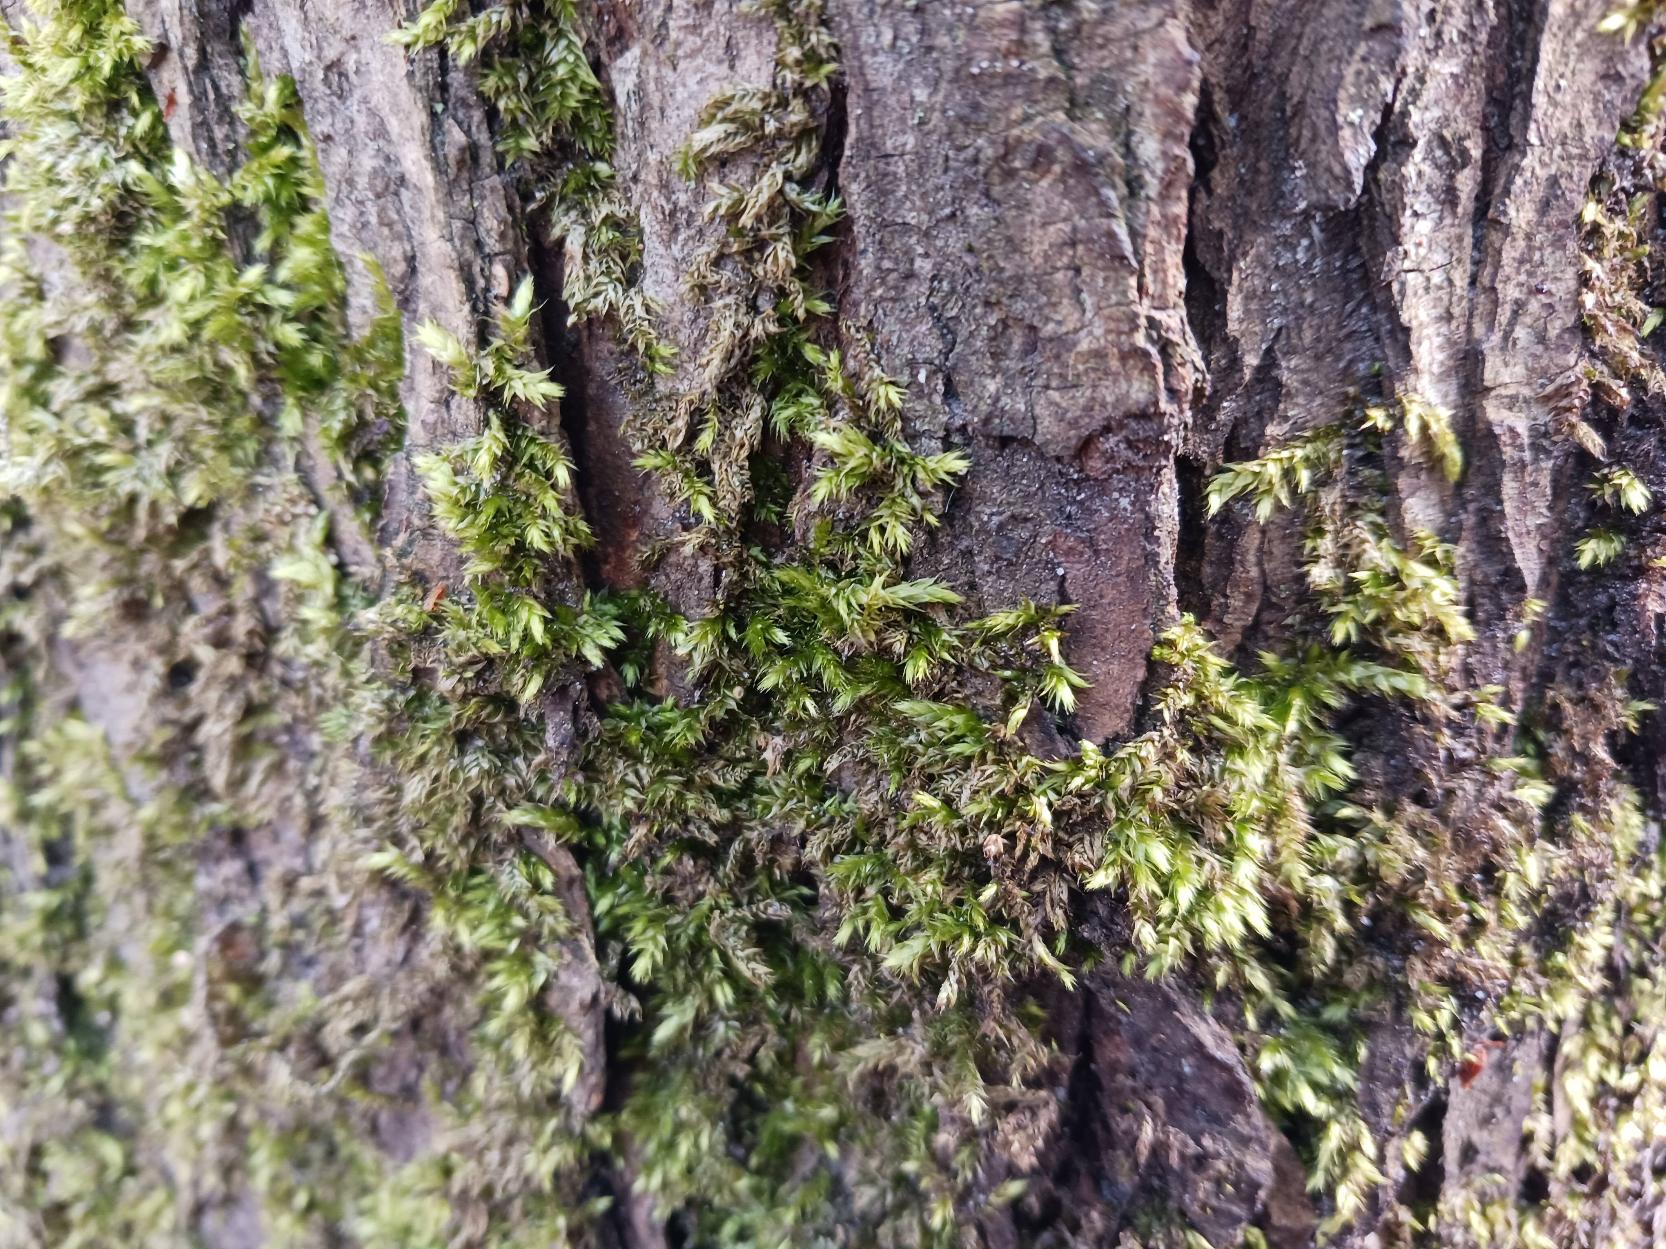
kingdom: Plantae
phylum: Bryophyta
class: Bryopsida
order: Hypnales
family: Brachytheciaceae
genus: Brachythecium
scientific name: Brachythecium rutabulum
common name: Almindelig kortkapsel
